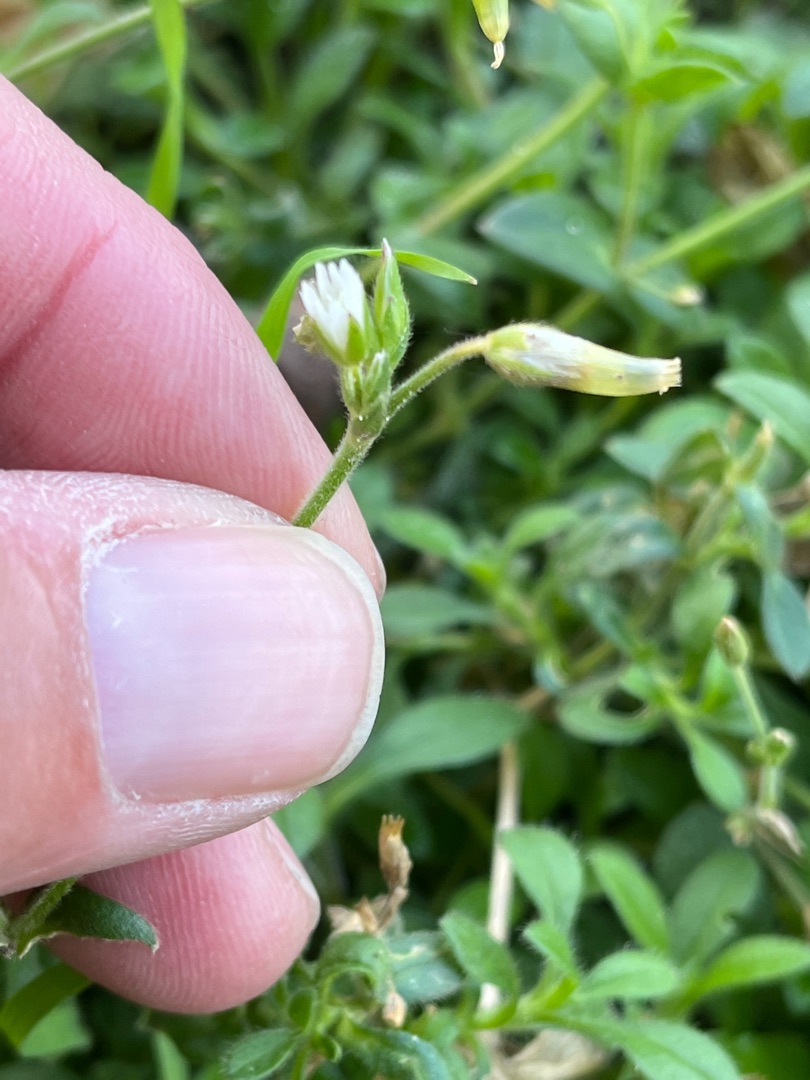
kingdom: Plantae
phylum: Tracheophyta
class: Magnoliopsida
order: Caryophyllales
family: Caryophyllaceae
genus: Cerastium
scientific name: Cerastium fontanum
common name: Almindelig hønsetarm
